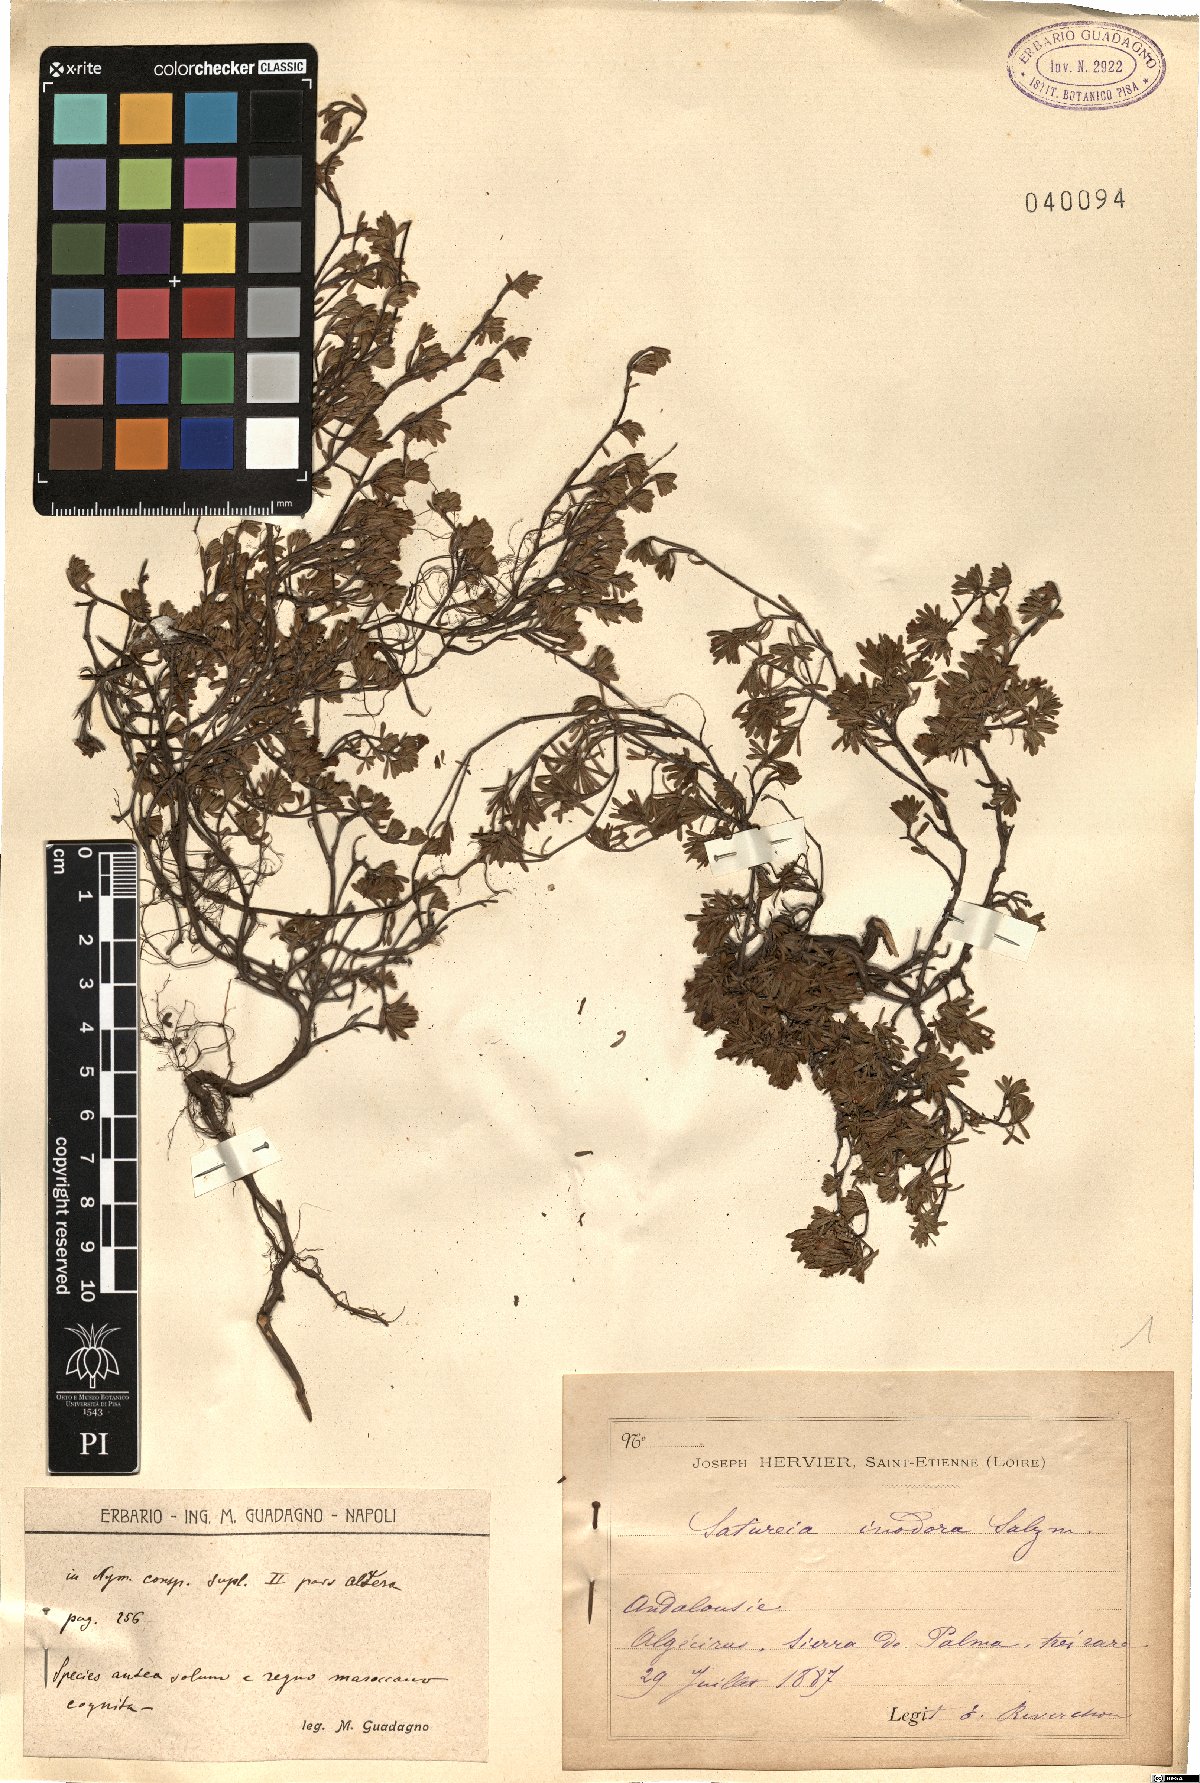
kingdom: Plantae
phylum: Tracheophyta
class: Magnoliopsida
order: Lamiales
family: Lamiaceae
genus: Satureja
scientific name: Satureja salzmannii
